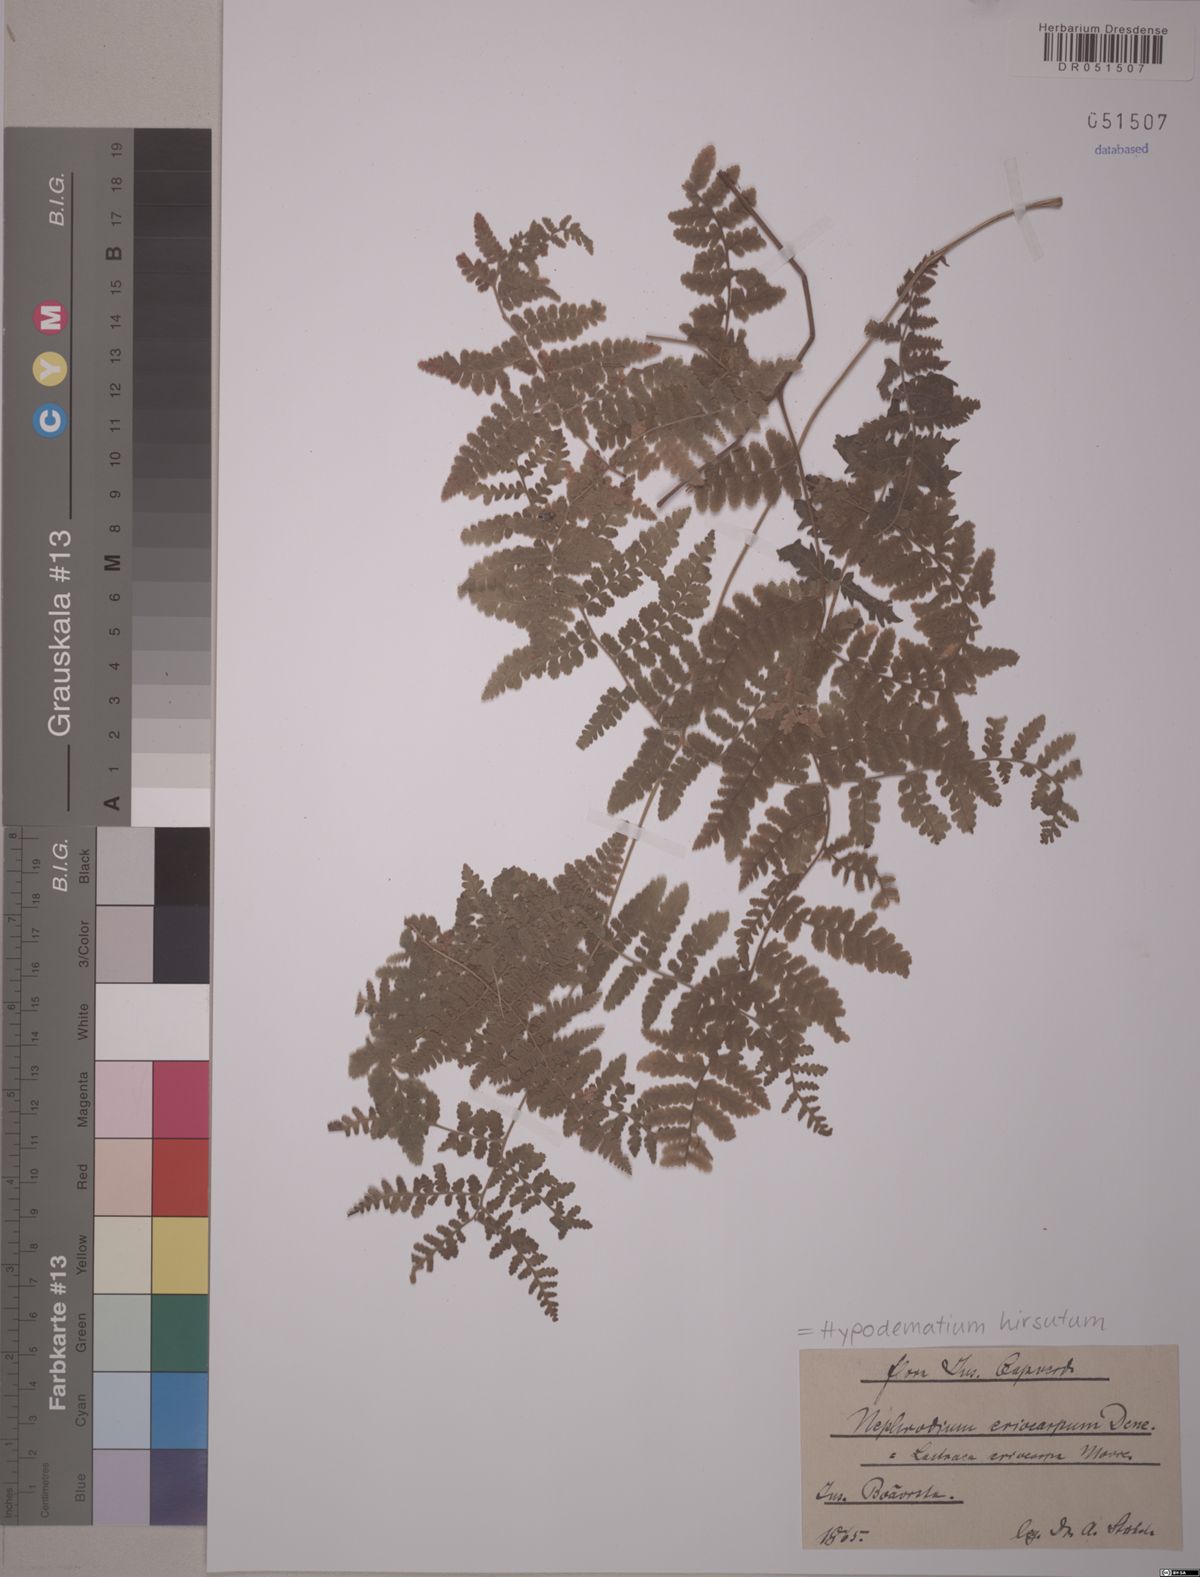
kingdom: Plantae
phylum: Tracheophyta
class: Polypodiopsida
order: Polypodiales
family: Hypodematiaceae
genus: Hypodematium
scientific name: Hypodematium hirsutum
